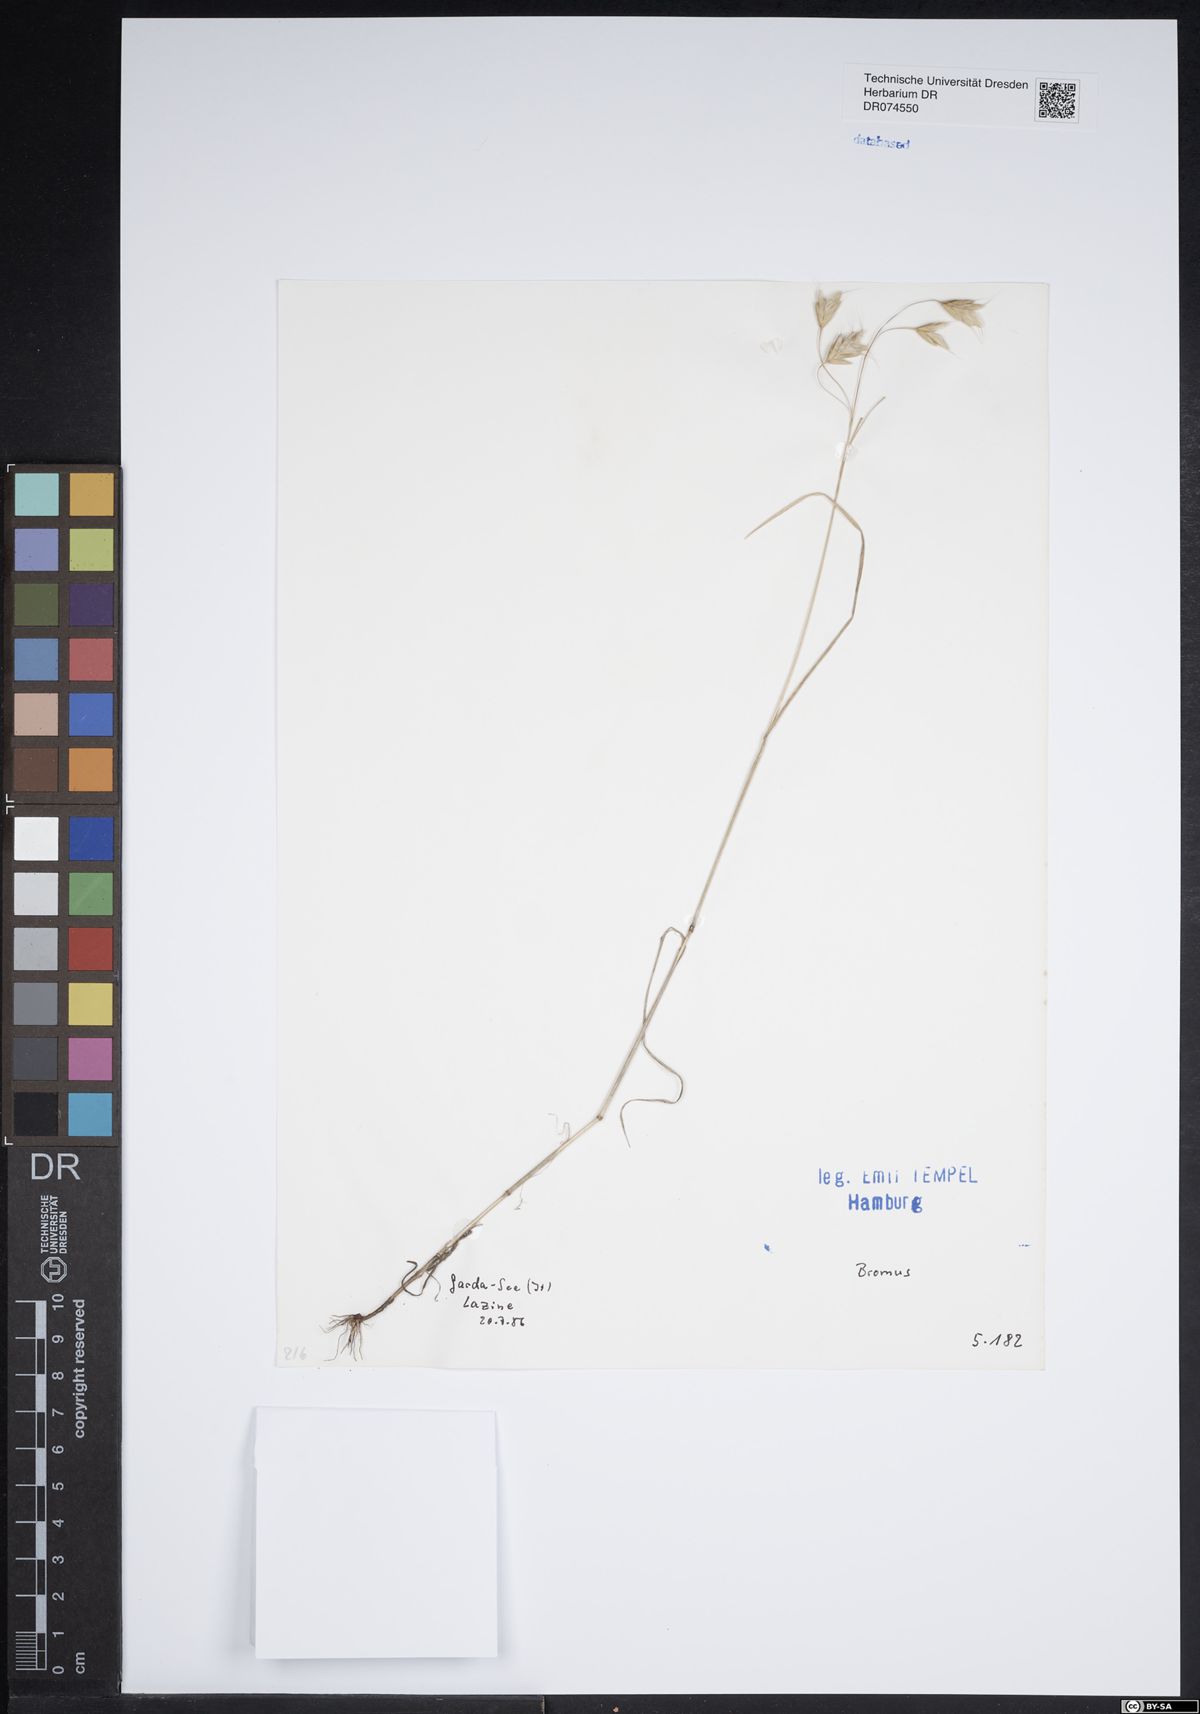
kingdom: Plantae
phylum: Tracheophyta
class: Liliopsida
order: Poales
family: Poaceae
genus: Bromus
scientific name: Bromus
